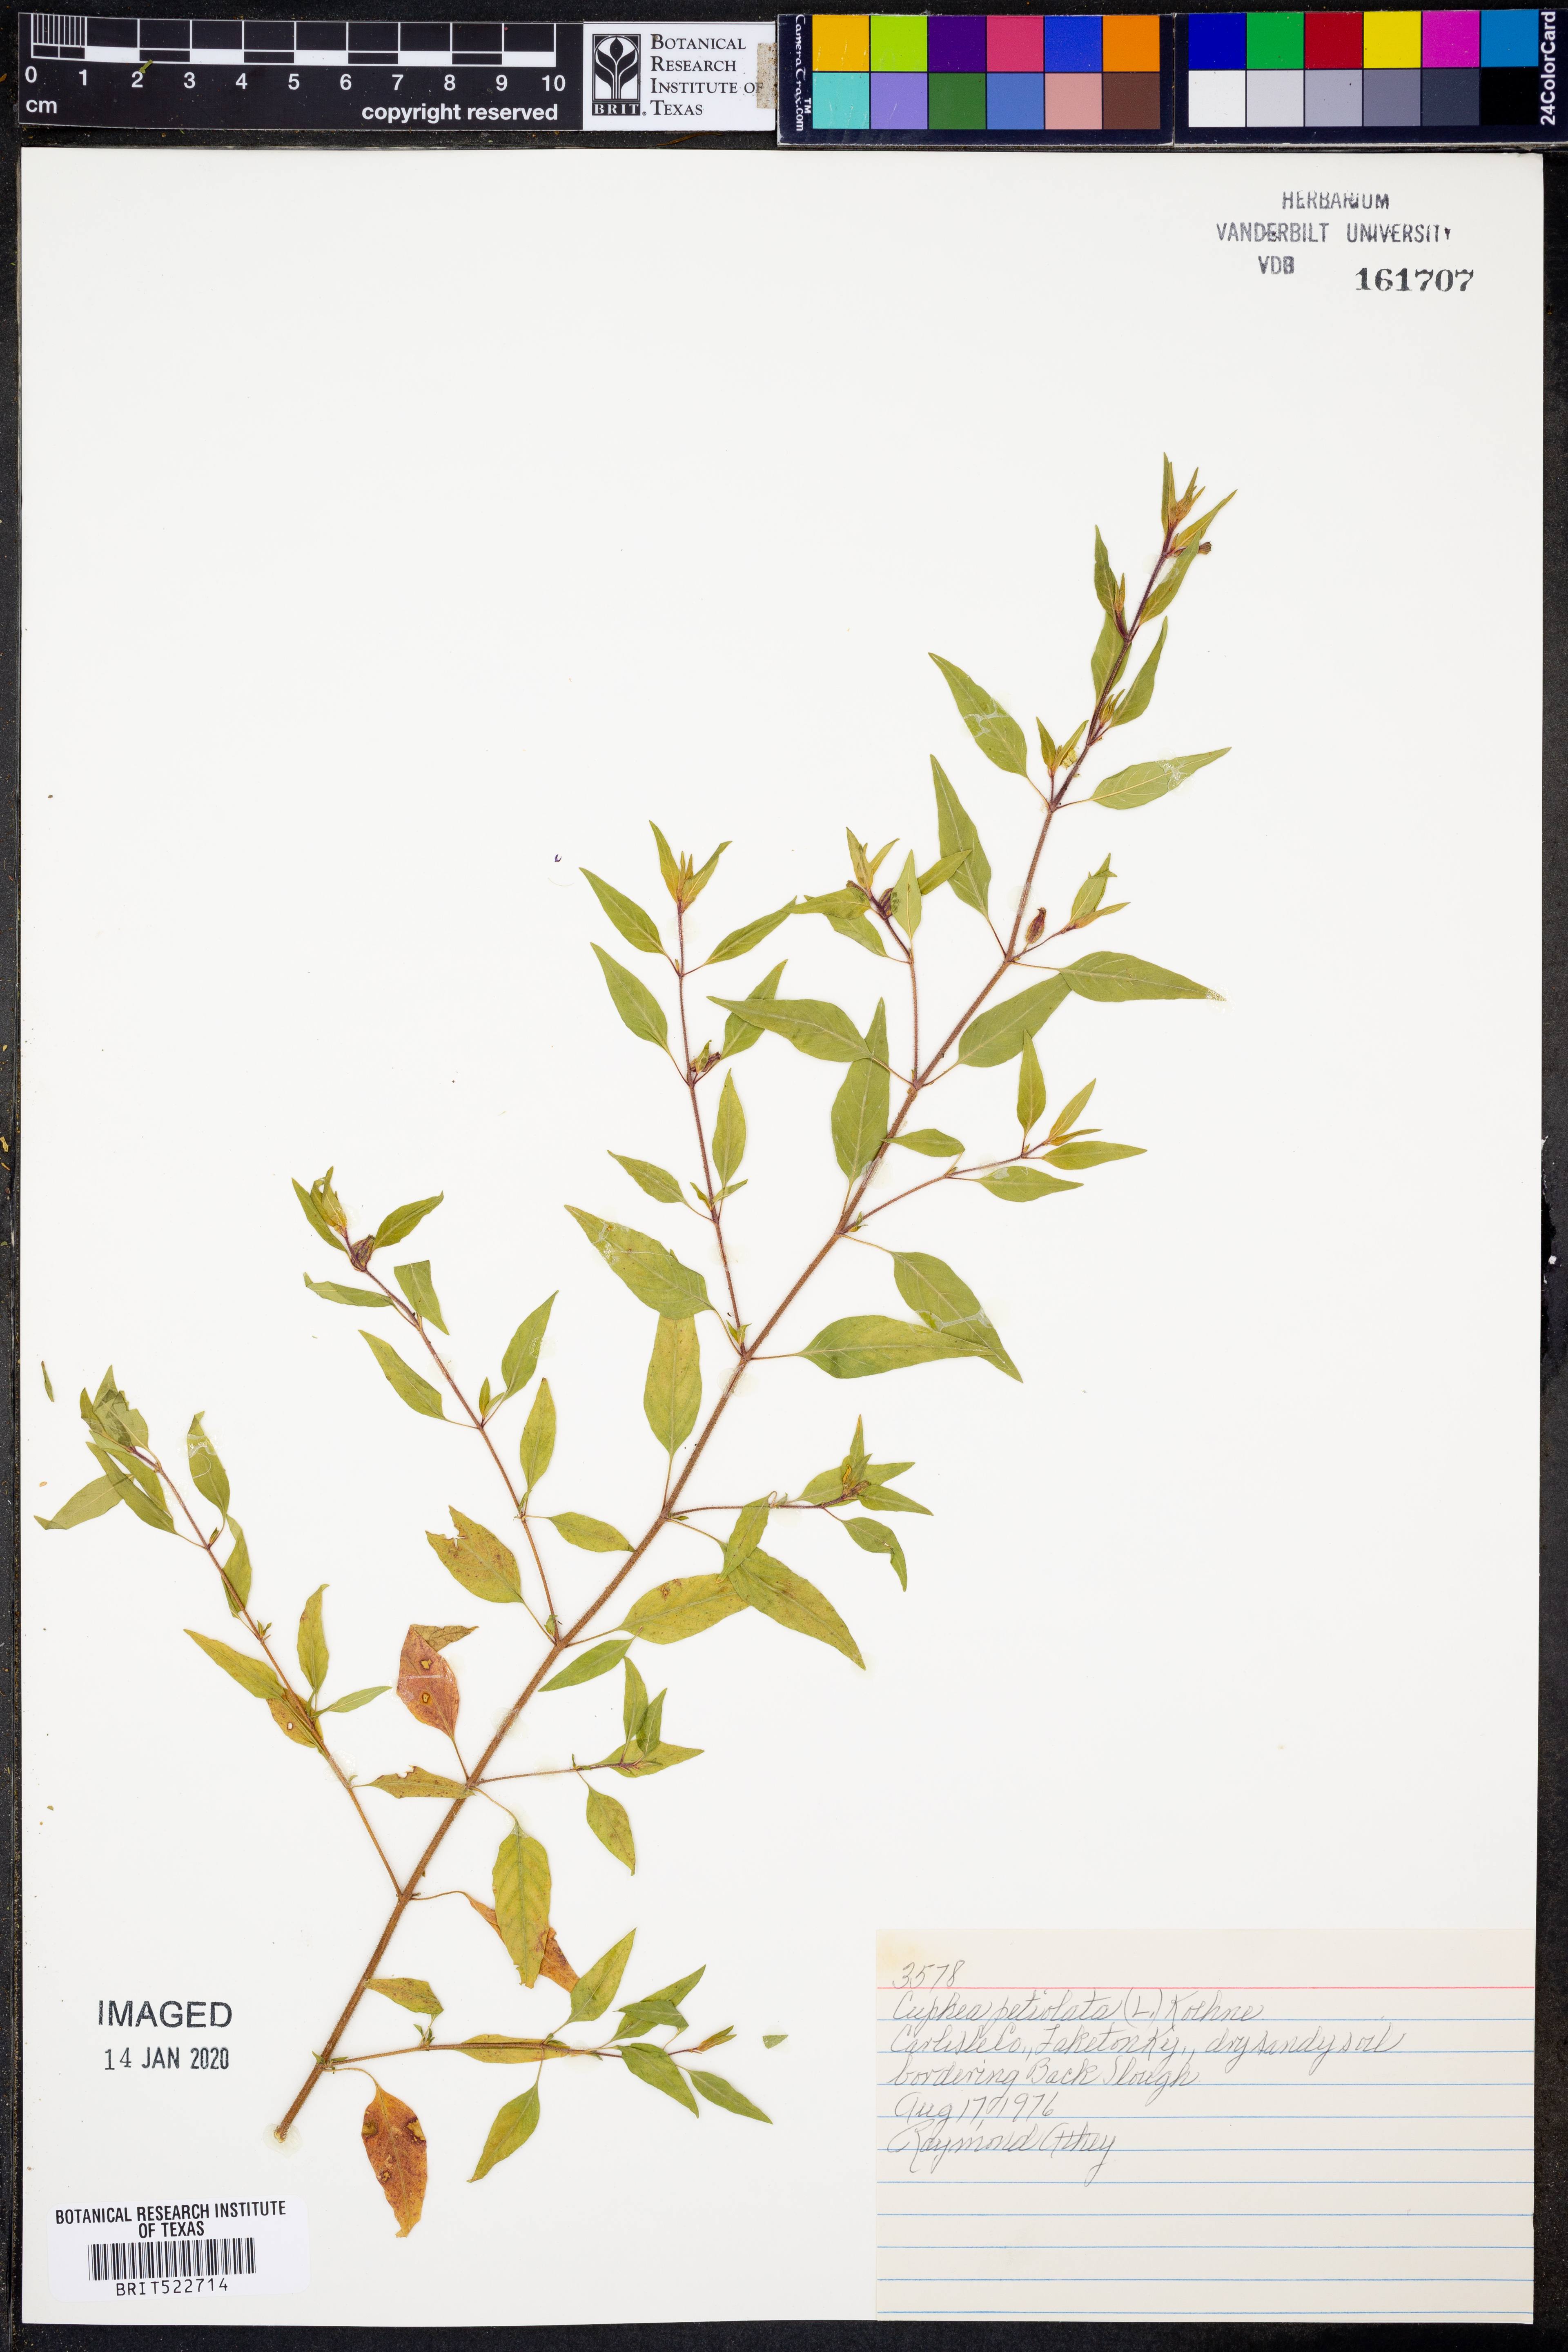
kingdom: Plantae
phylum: Tracheophyta
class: Magnoliopsida
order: Myrtales
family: Lythraceae
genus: Cuphea
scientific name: Cuphea viscosissima
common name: Clammy cuphea
